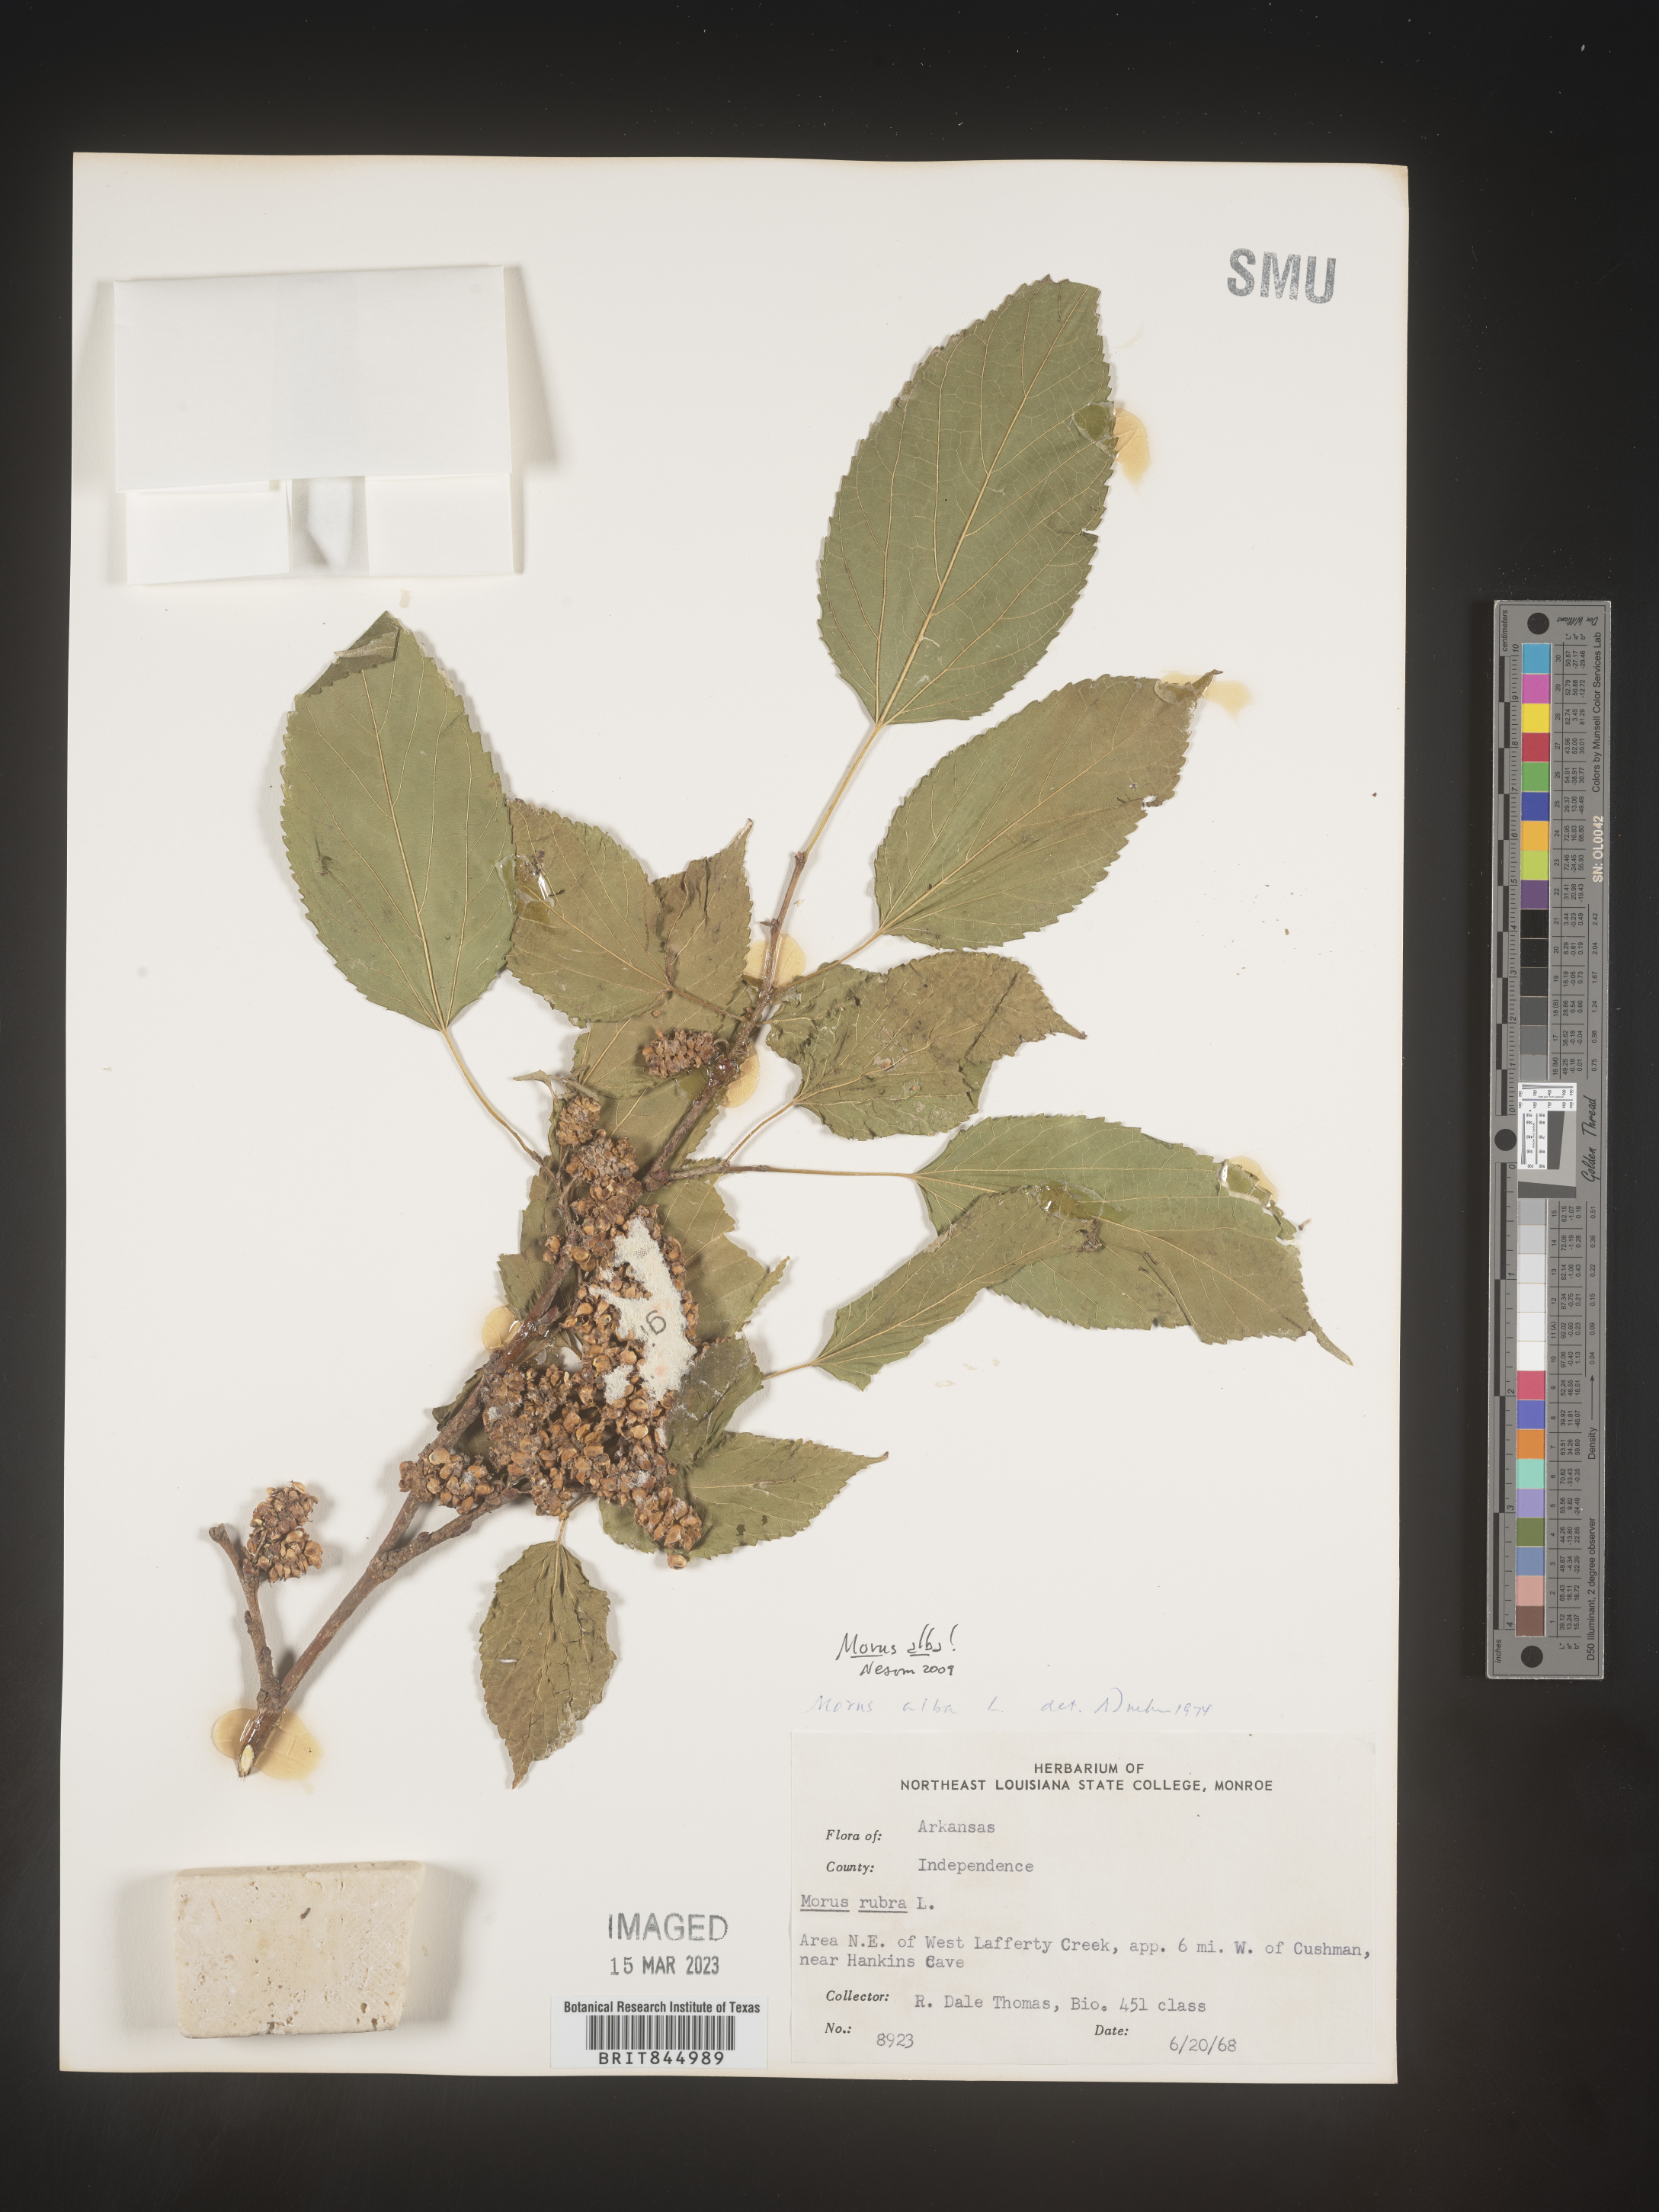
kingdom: Plantae
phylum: Tracheophyta
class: Magnoliopsida
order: Rosales
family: Moraceae
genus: Morus
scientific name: Morus alba
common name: White mulberry
